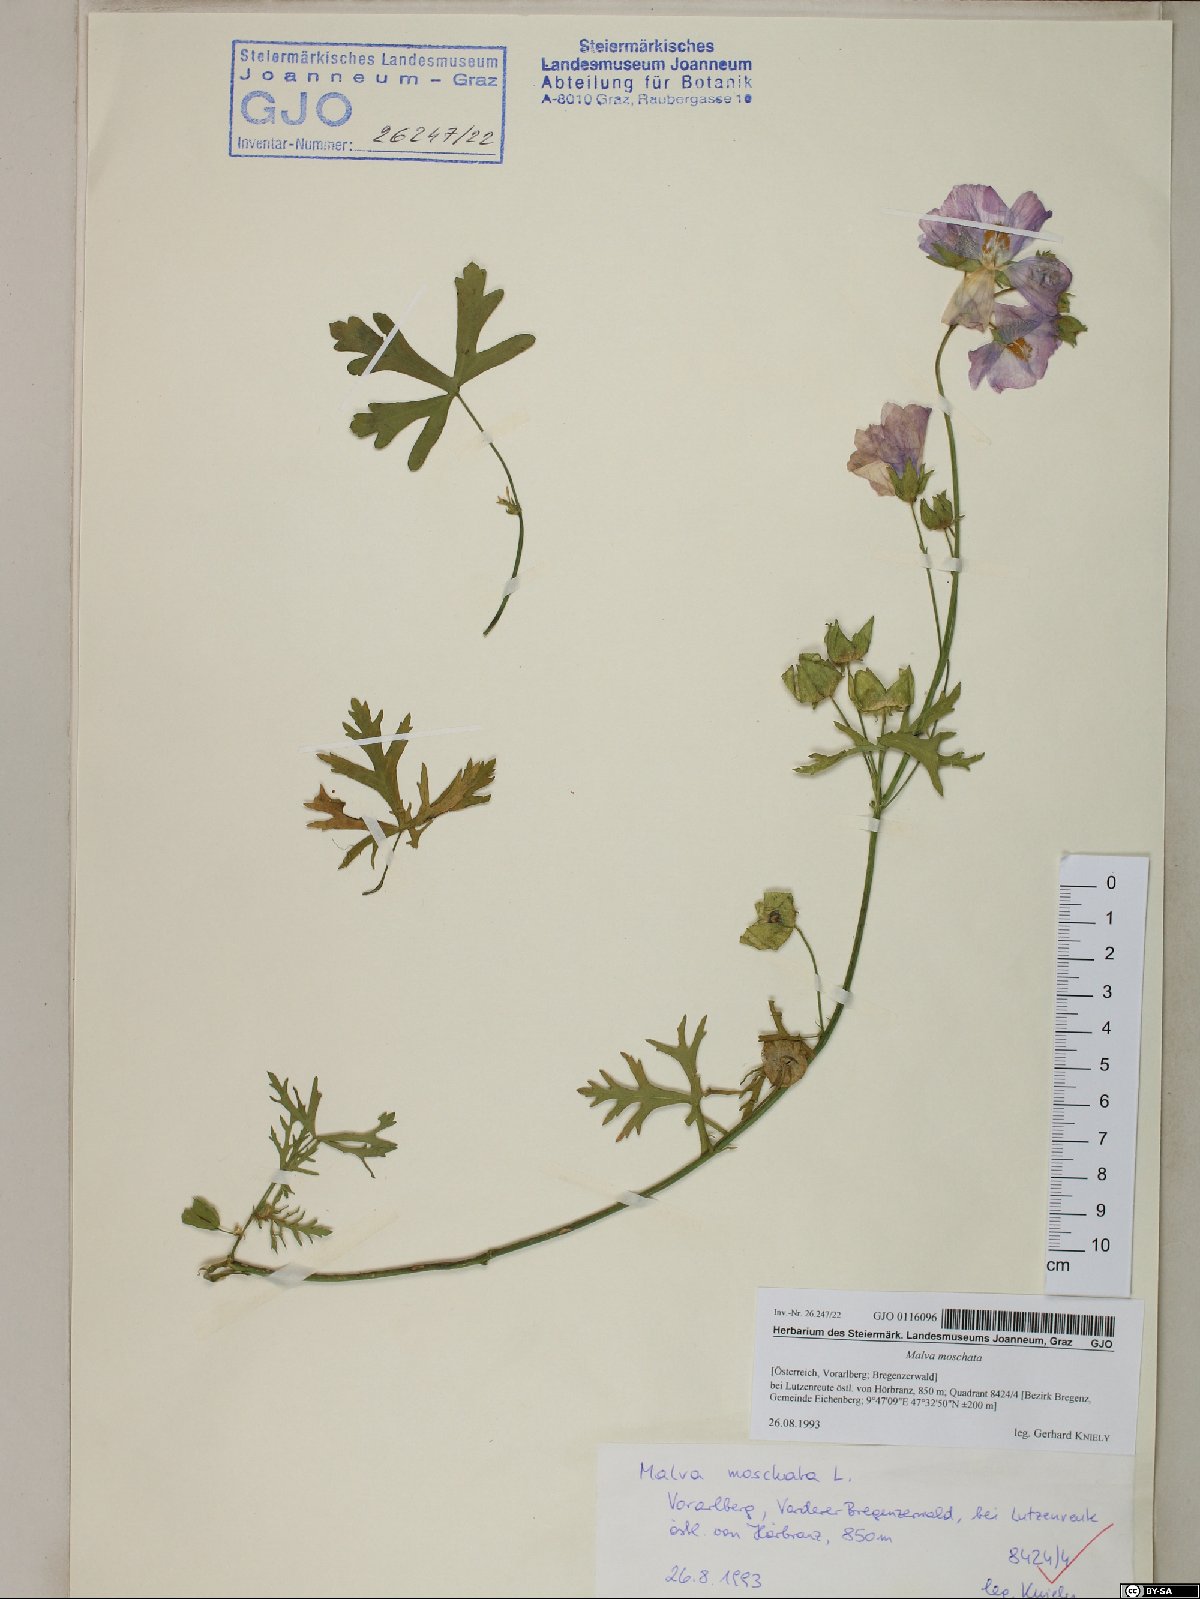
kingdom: Plantae
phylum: Tracheophyta
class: Magnoliopsida
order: Malvales
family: Malvaceae
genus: Malva
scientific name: Malva moschata
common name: Musk mallow
